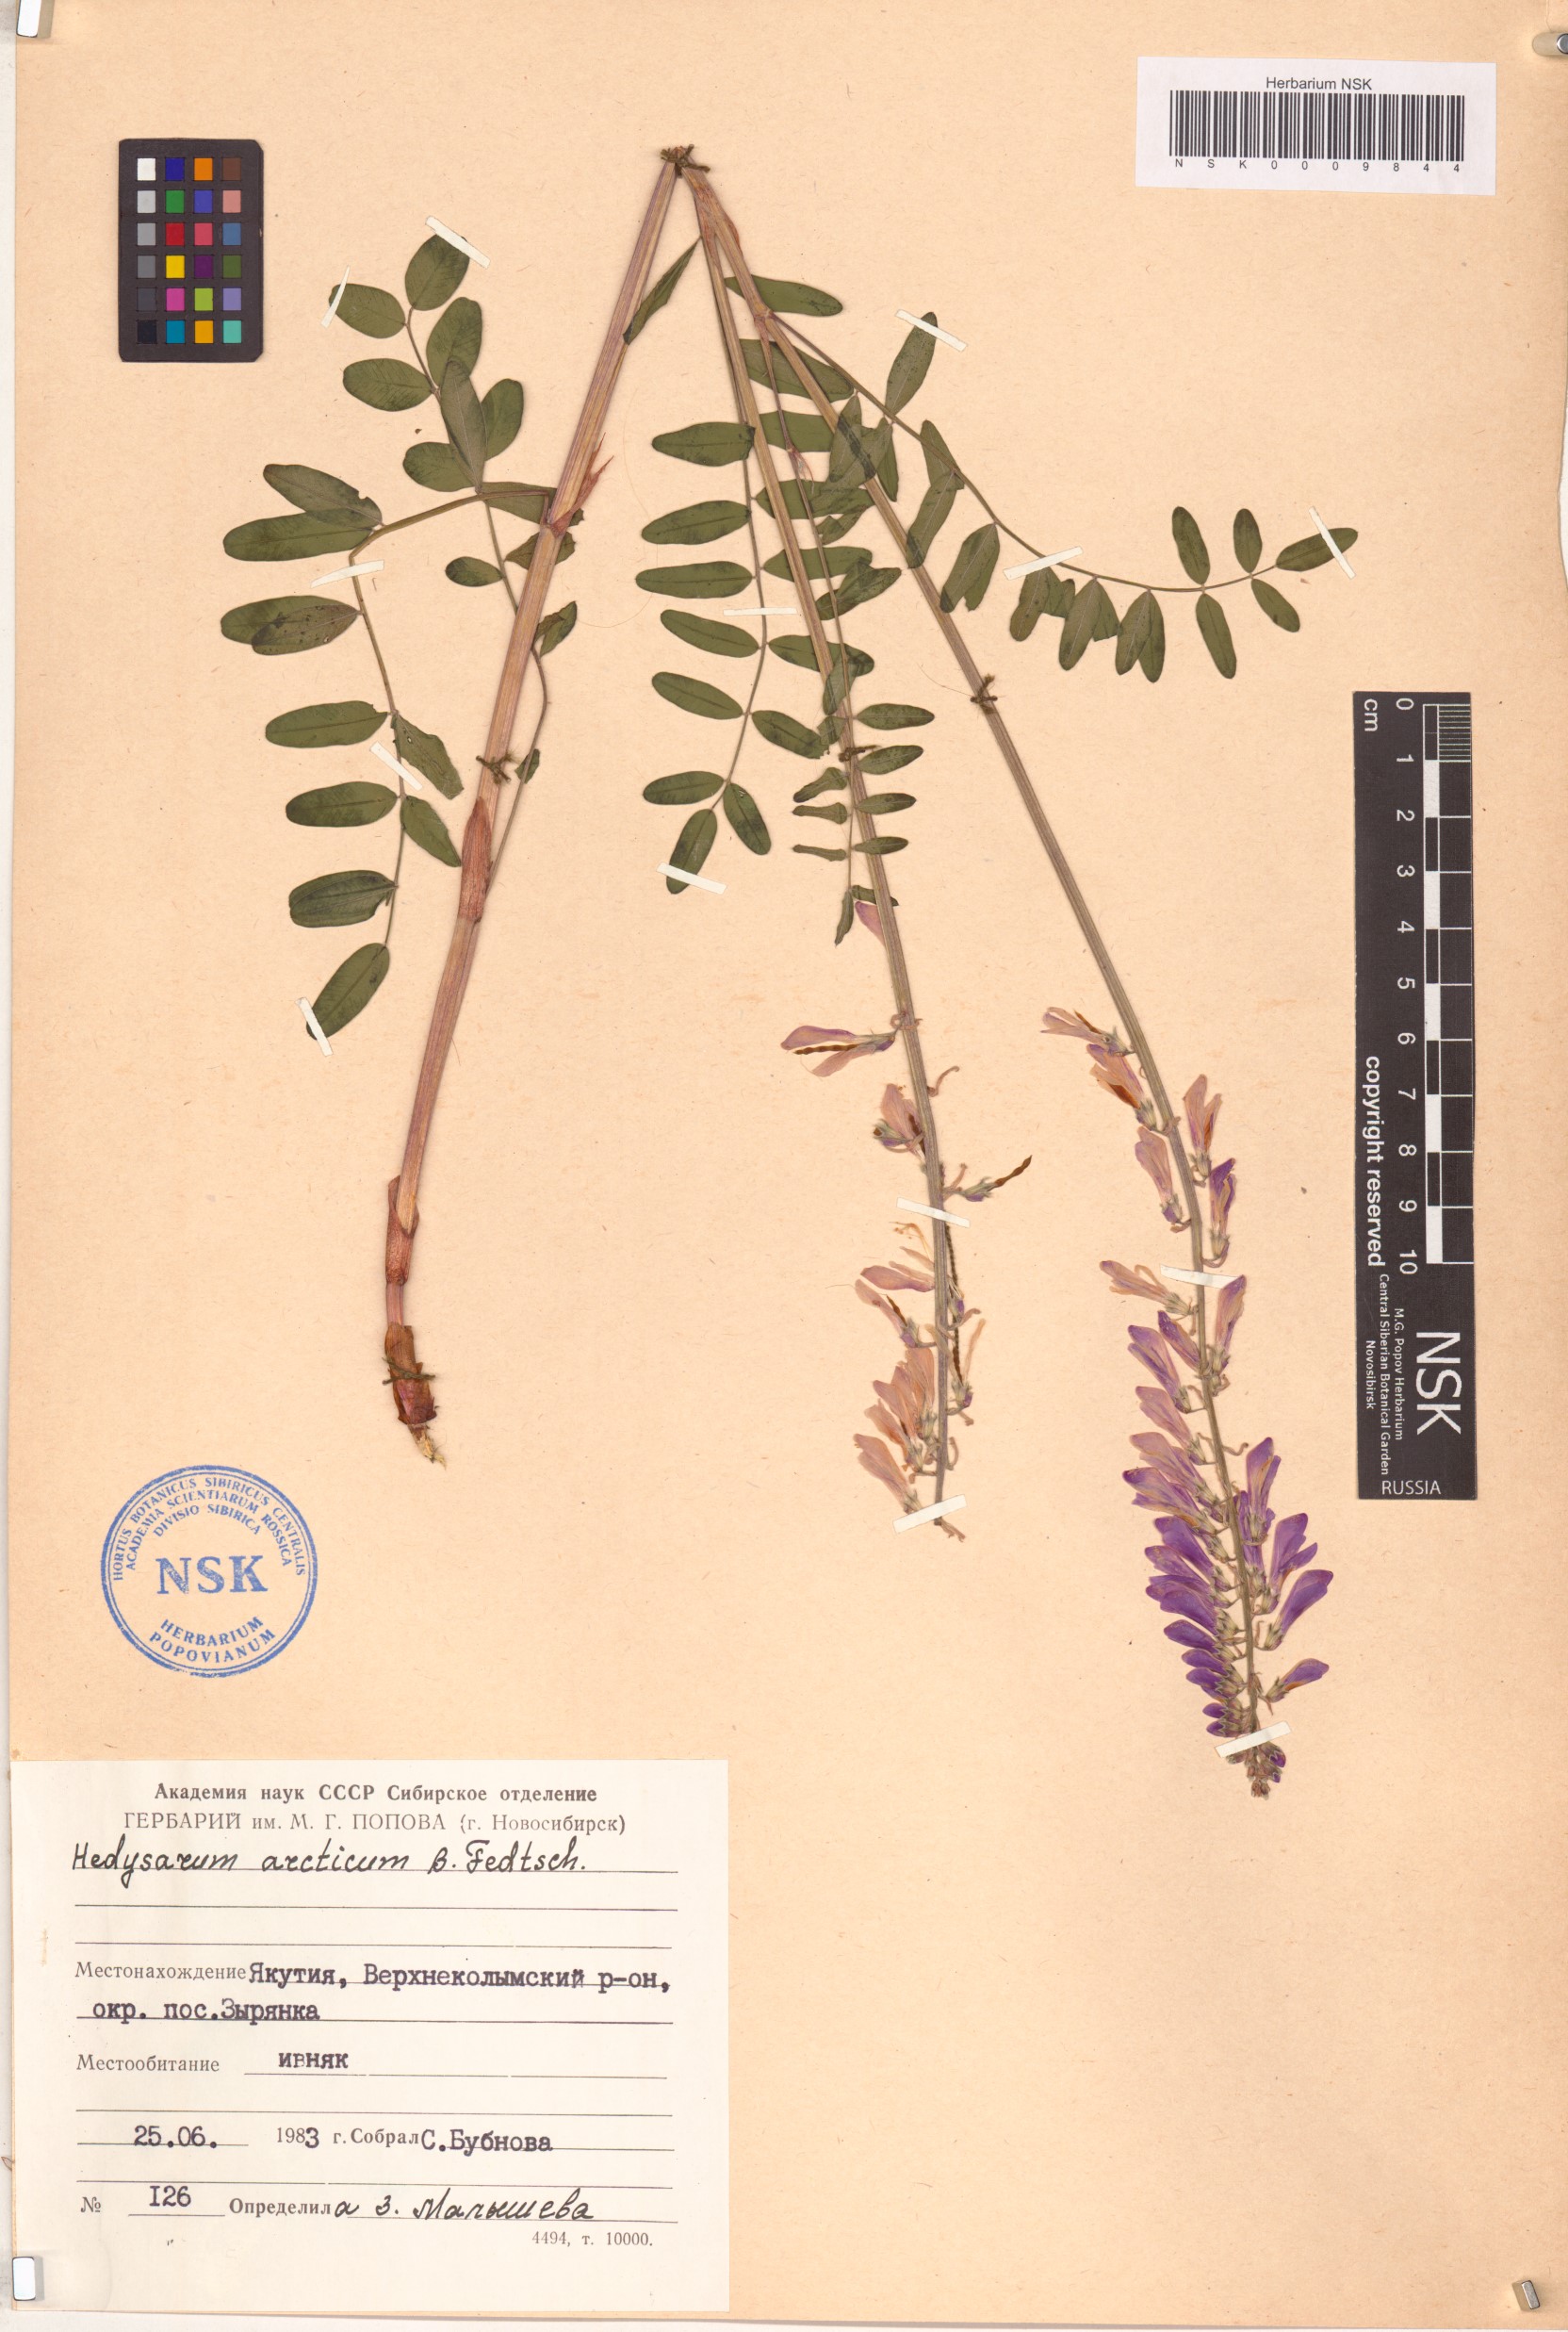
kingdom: Plantae
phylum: Tracheophyta
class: Magnoliopsida
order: Fabales
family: Fabaceae
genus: Hedysarum
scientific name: Hedysarum hedysaroides
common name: Alpine french-honeysuckle
